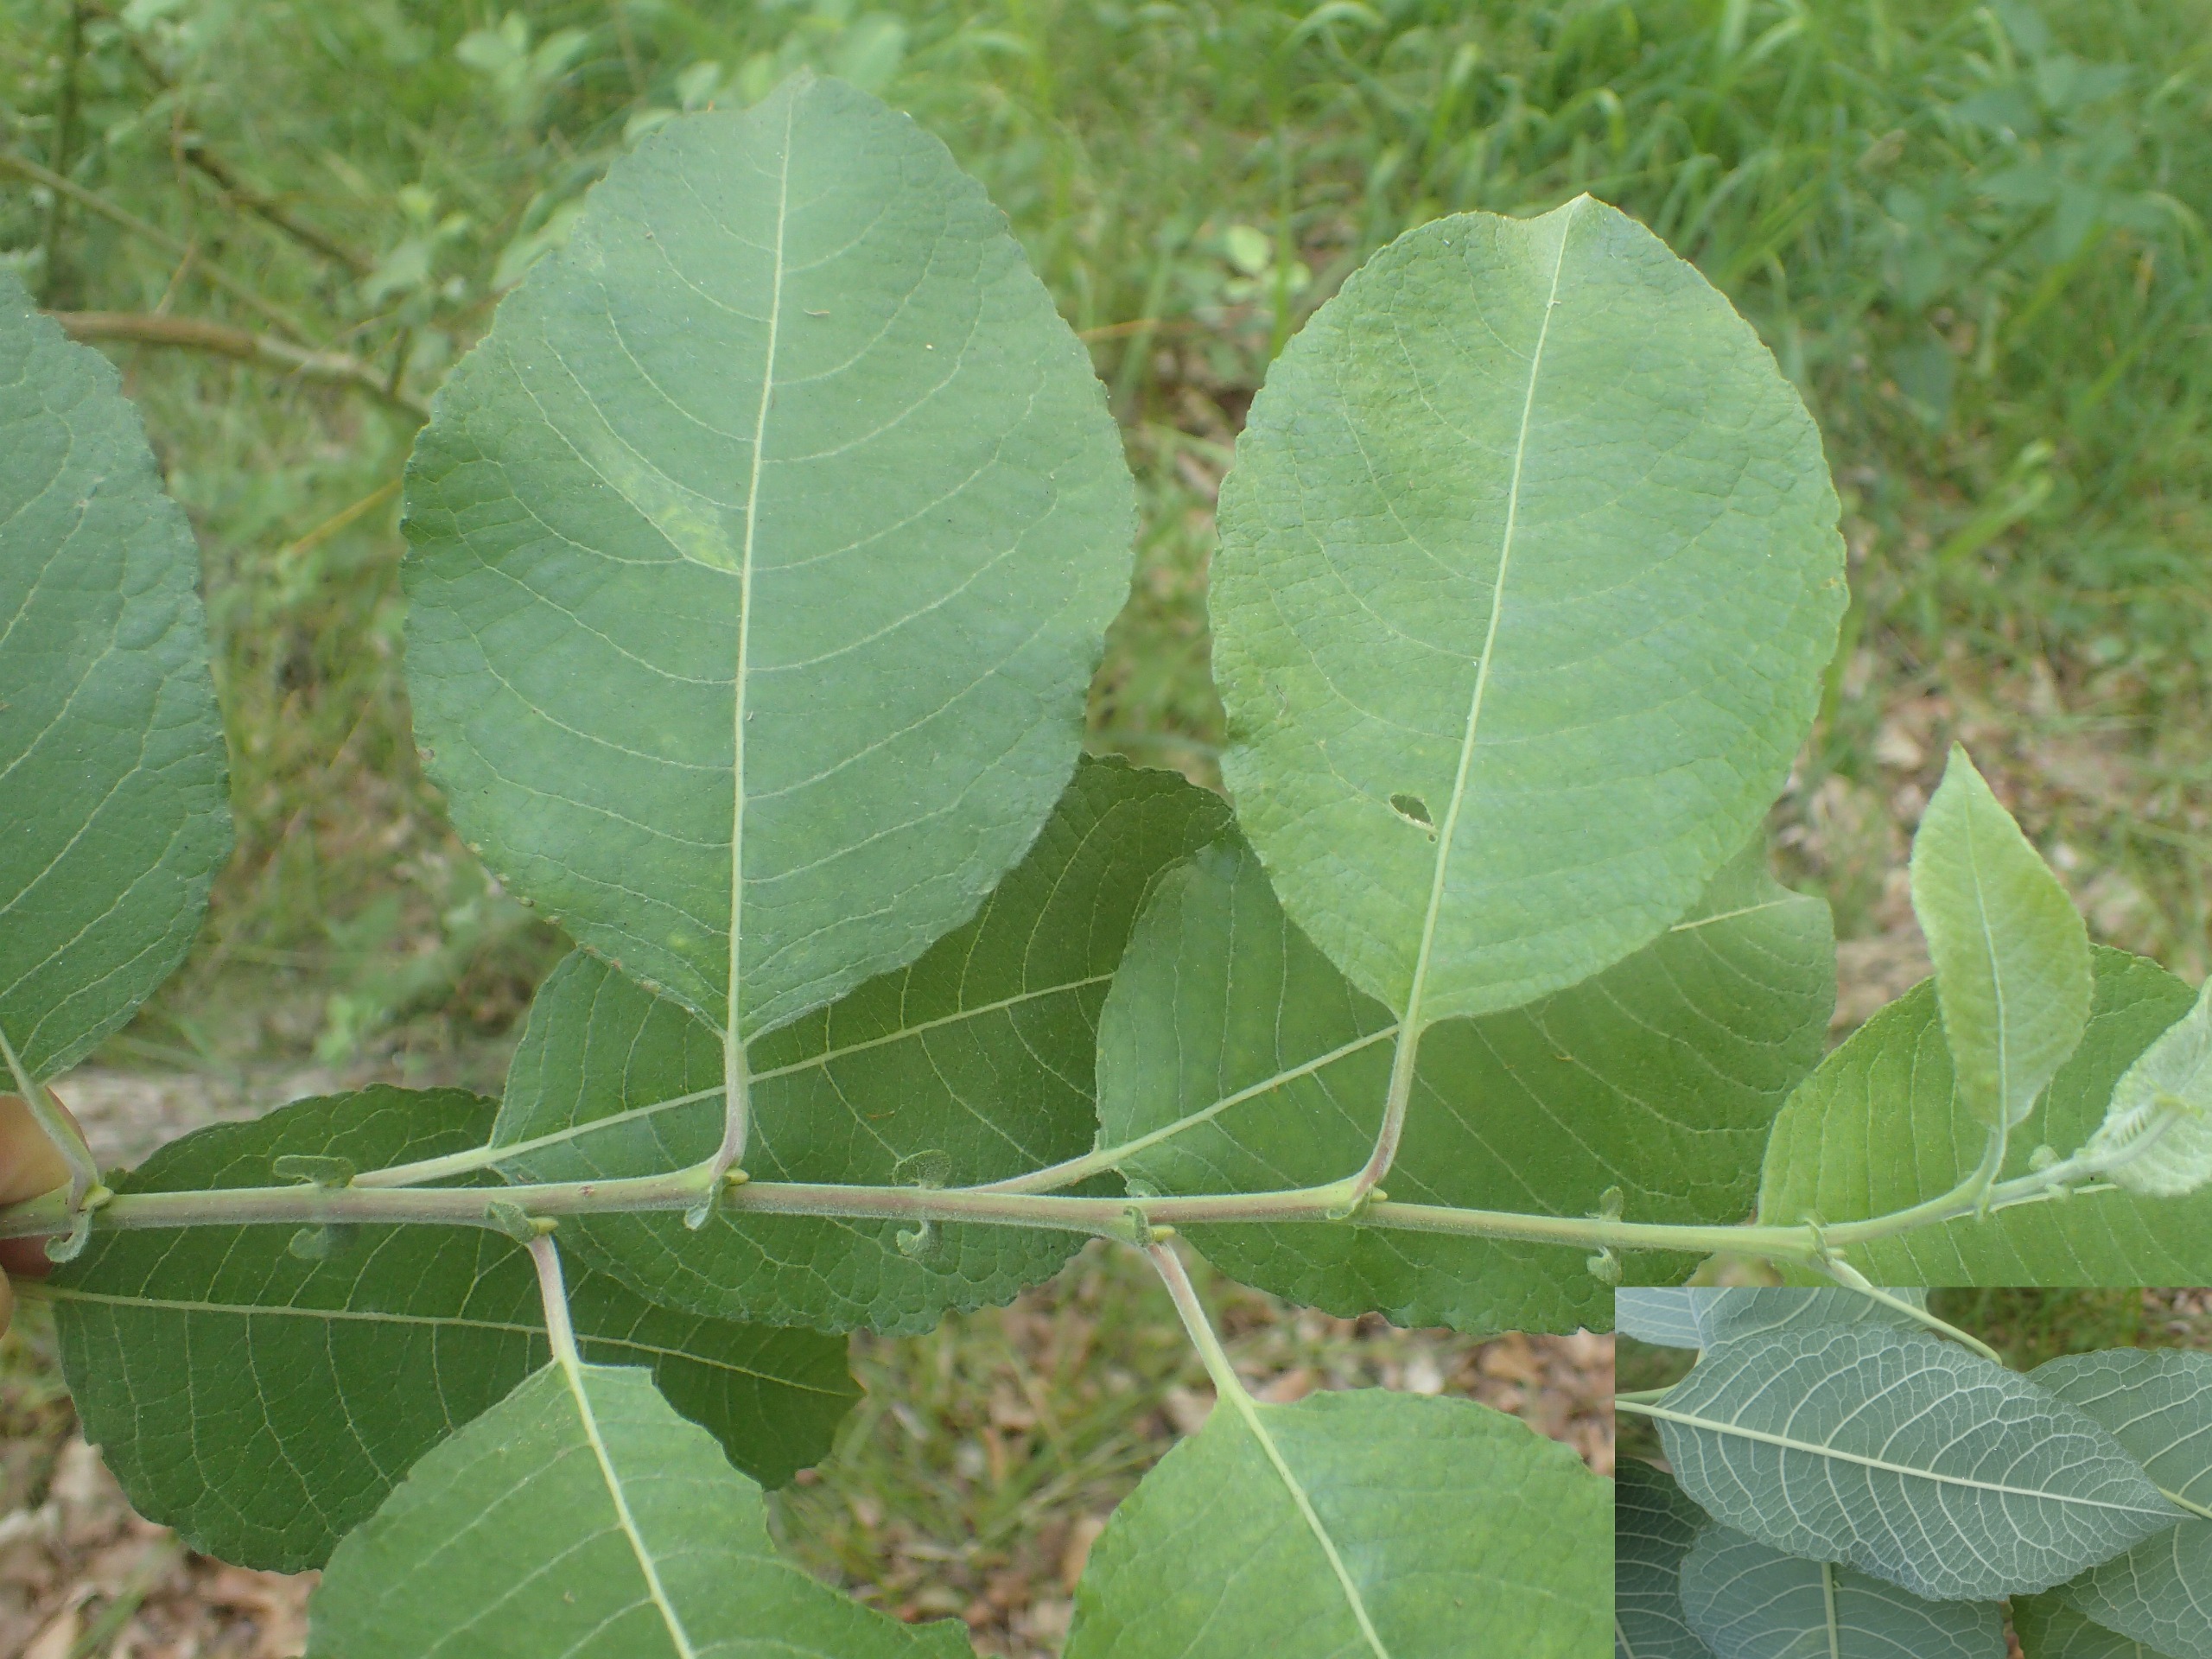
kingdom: Plantae
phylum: Tracheophyta
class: Magnoliopsida
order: Malpighiales
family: Salicaceae
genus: Salix
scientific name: Salix caprea
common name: Selje-pil
